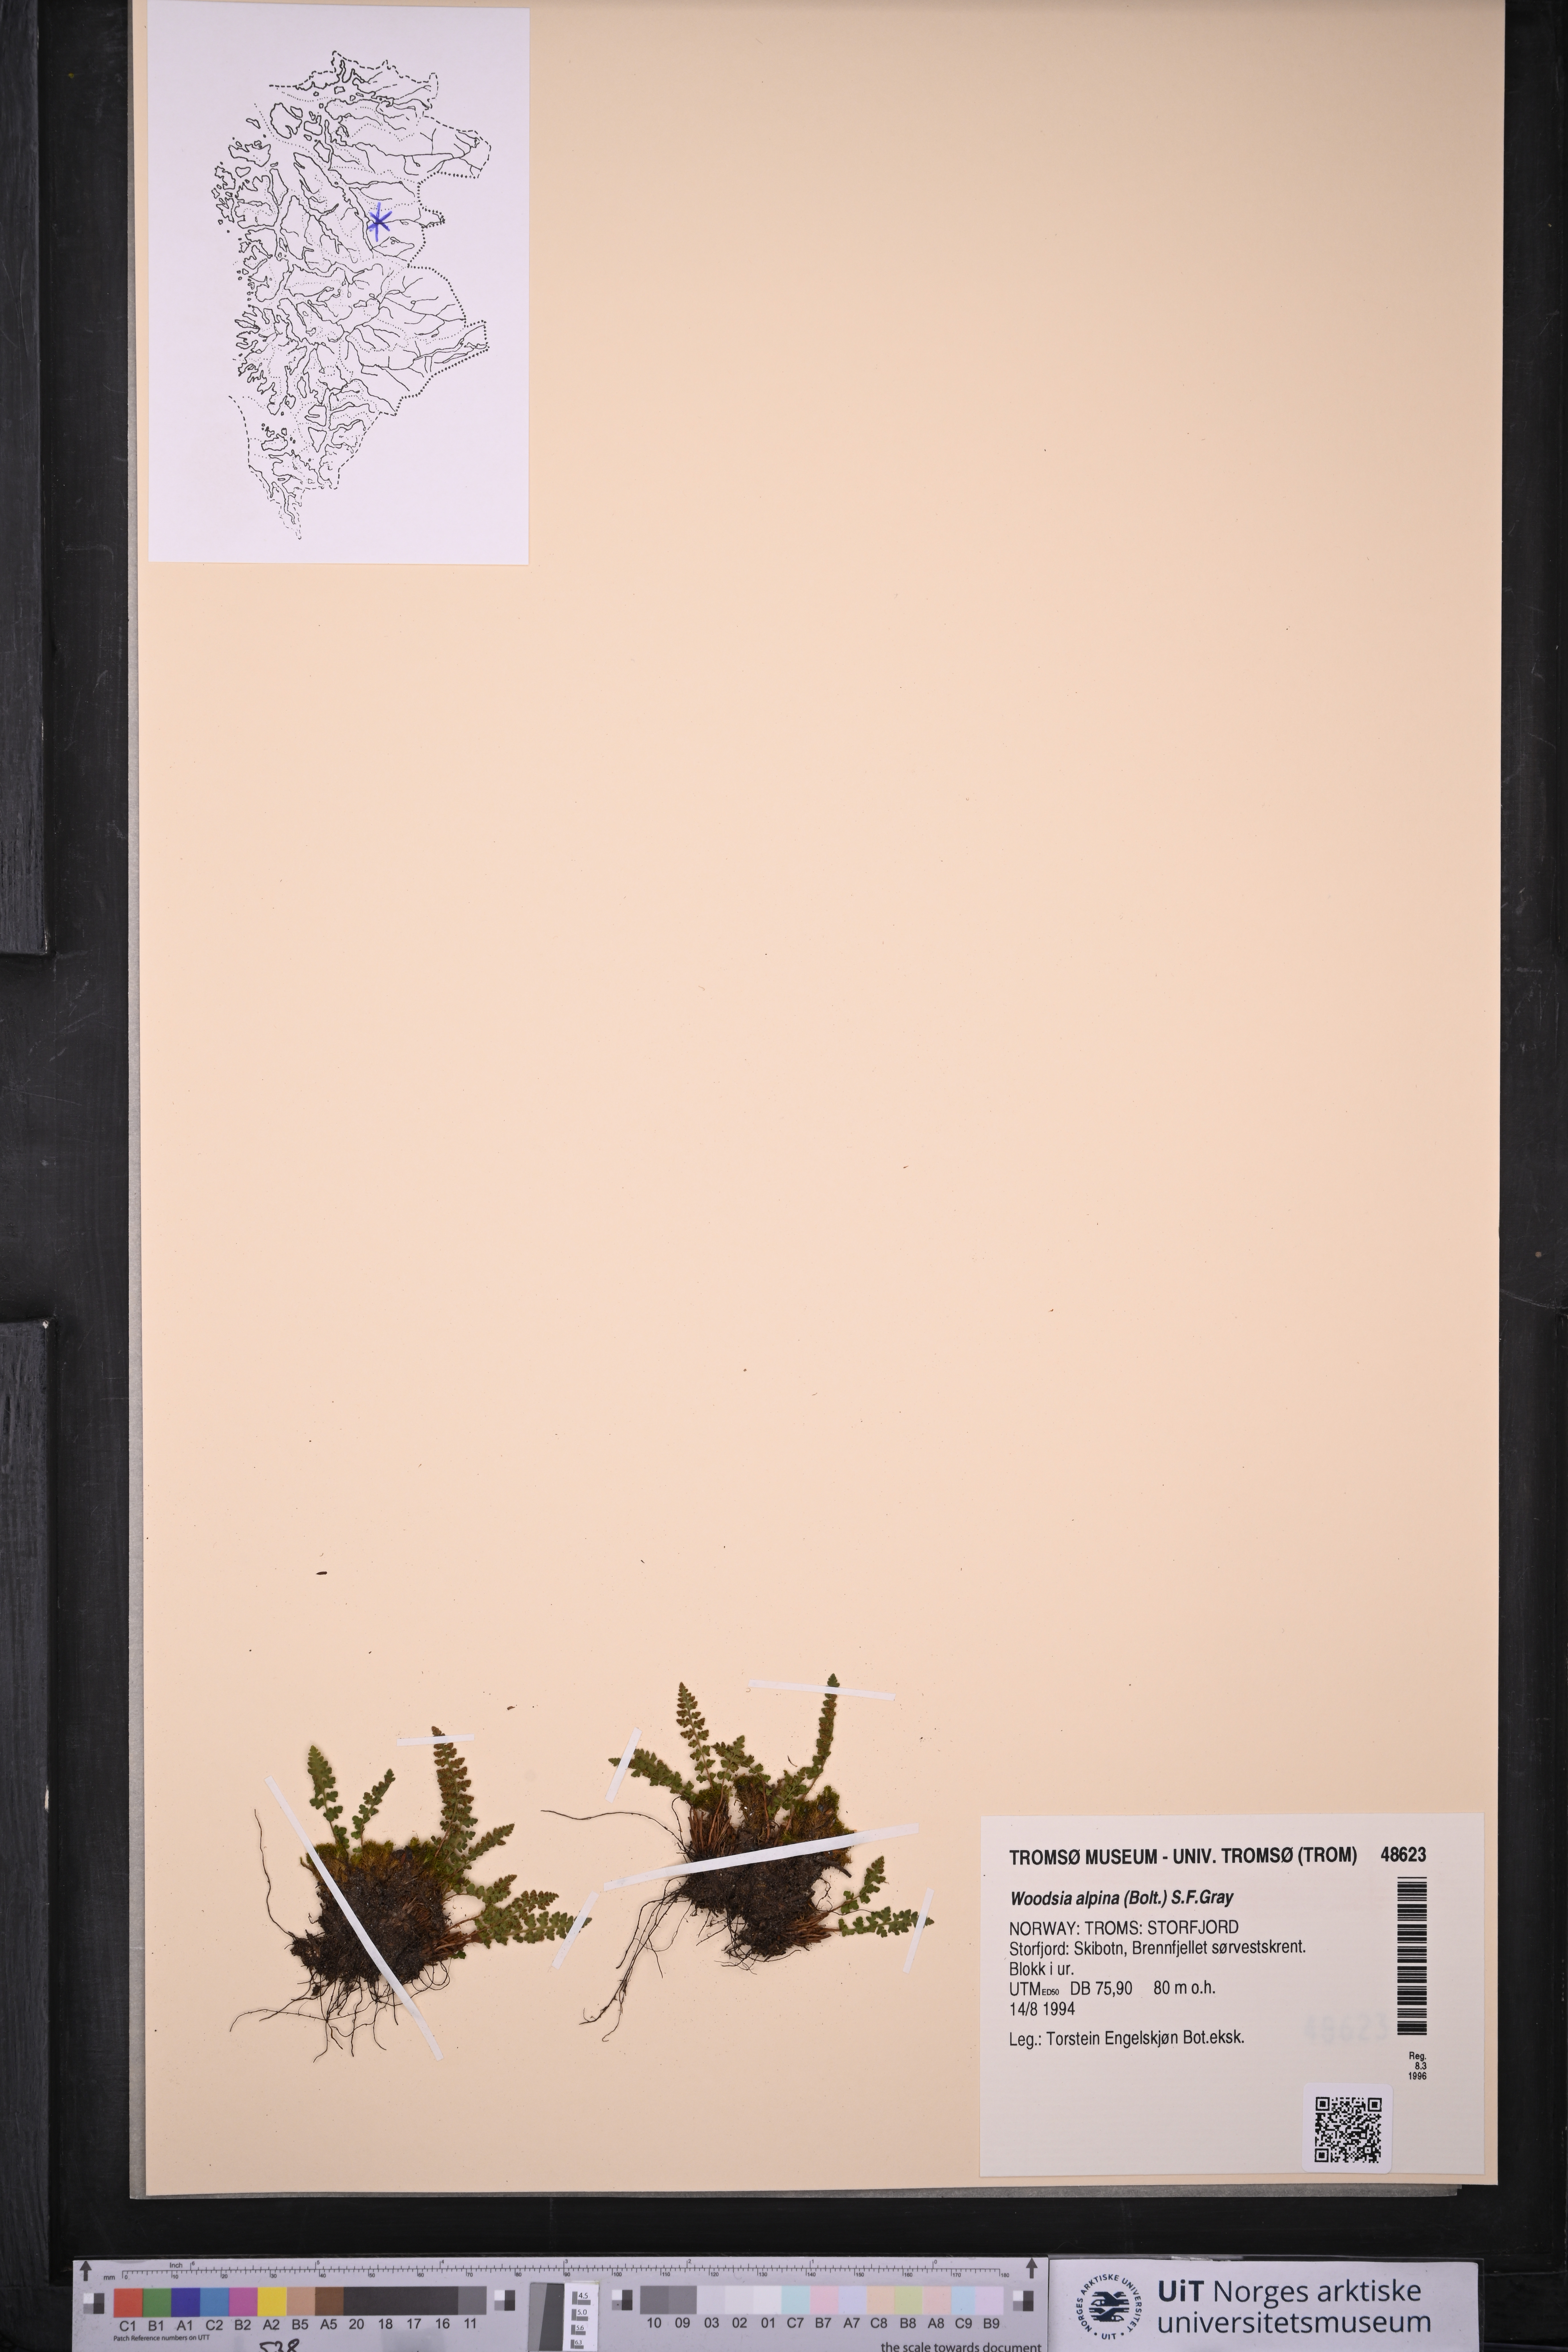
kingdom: Plantae
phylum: Tracheophyta
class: Polypodiopsida
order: Polypodiales
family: Woodsiaceae
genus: Woodsia
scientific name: Woodsia alpina
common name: Alpine woodsia
